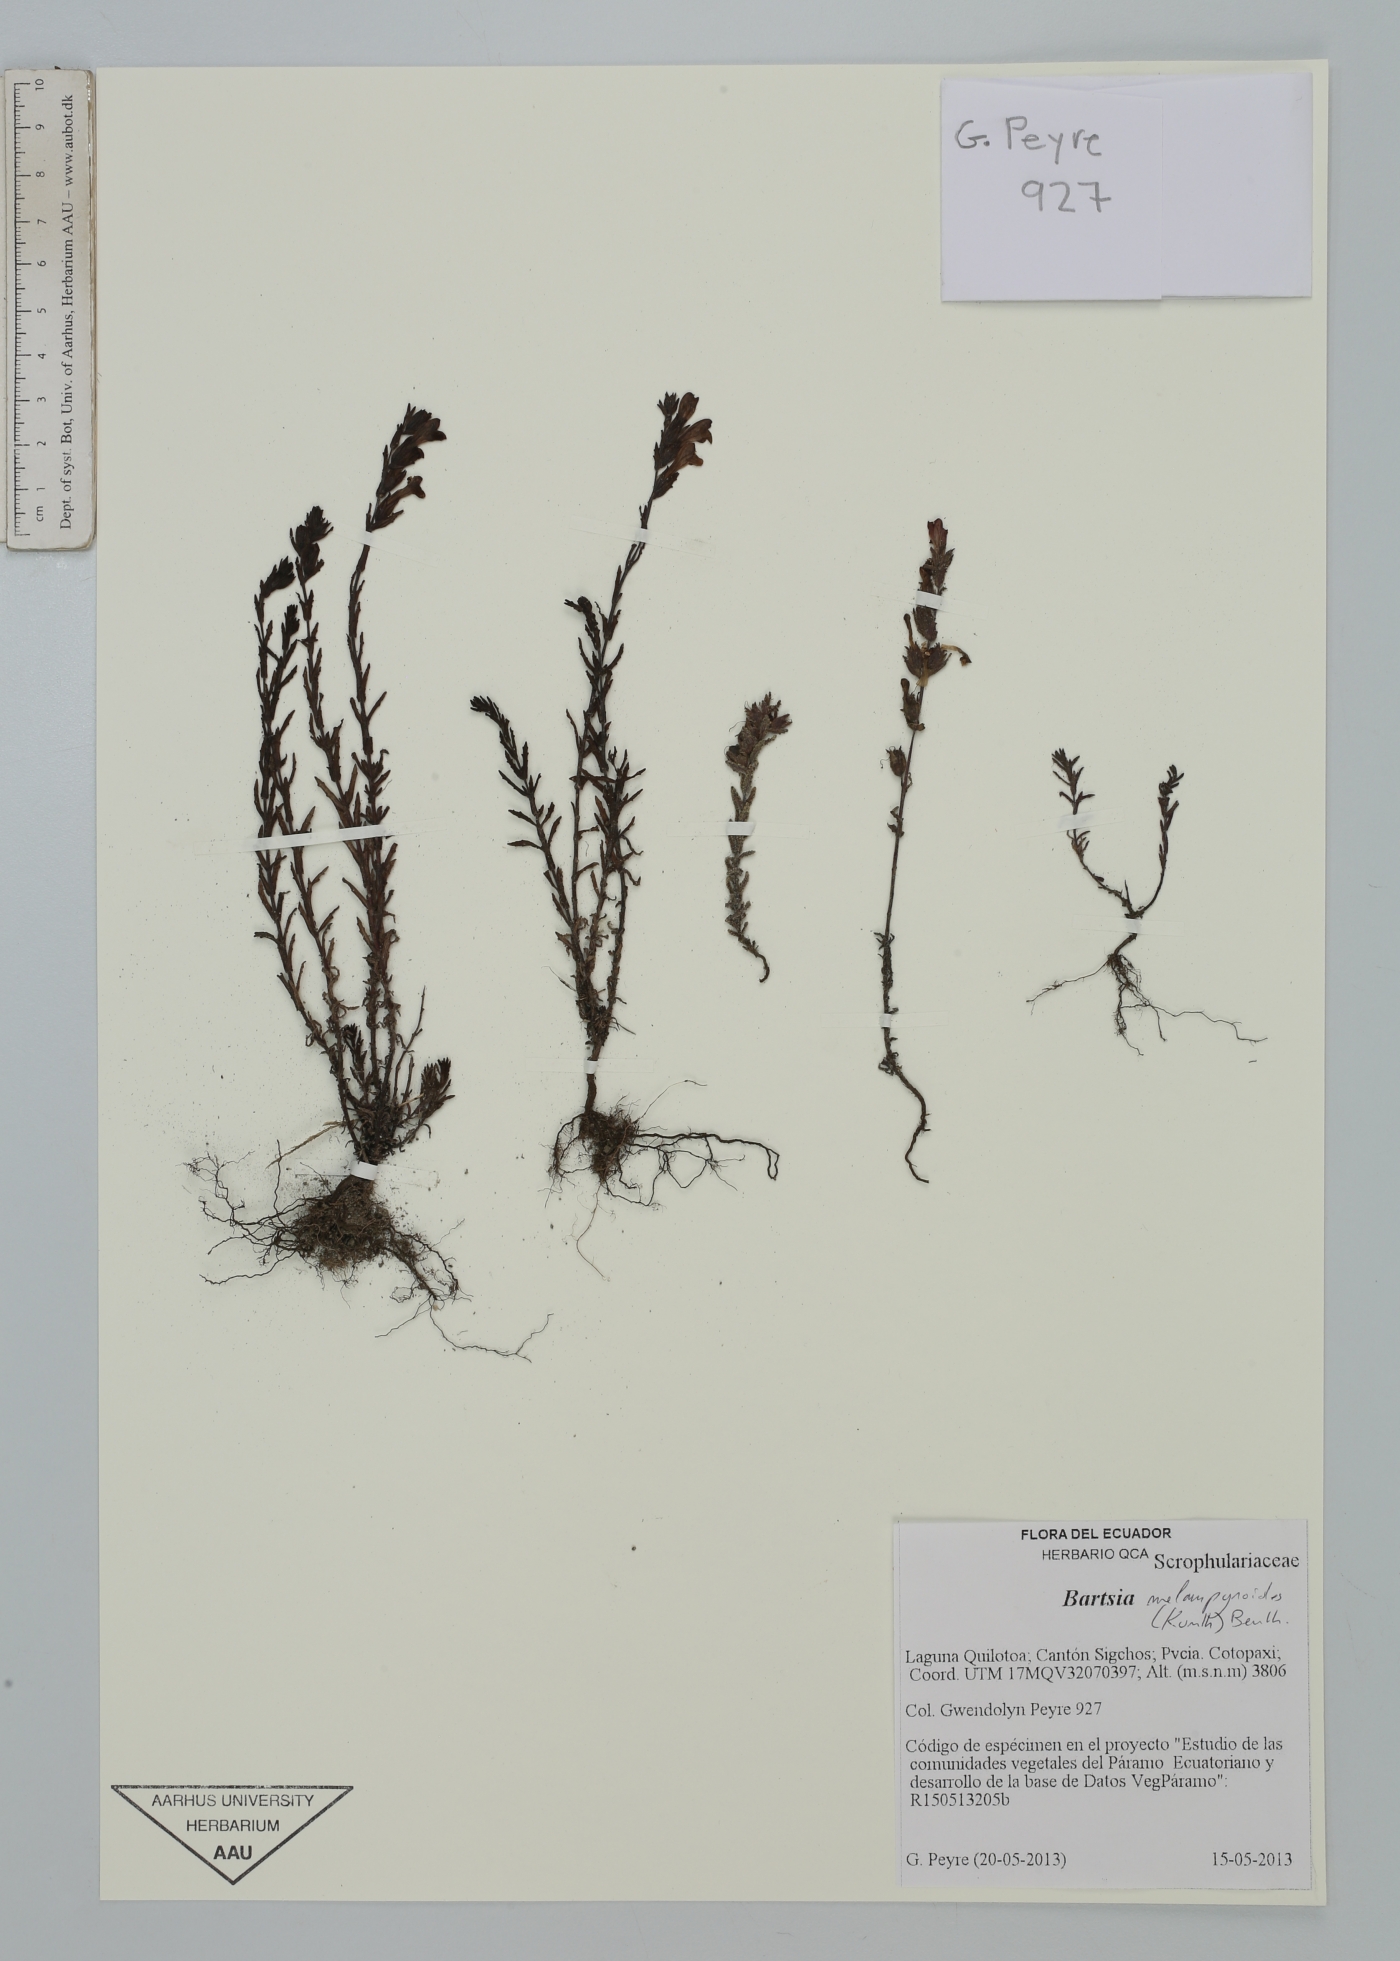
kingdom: Plantae
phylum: Tracheophyta
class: Magnoliopsida
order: Lamiales
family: Orobanchaceae
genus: Neobartsia
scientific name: Neobartsia melampyroides
